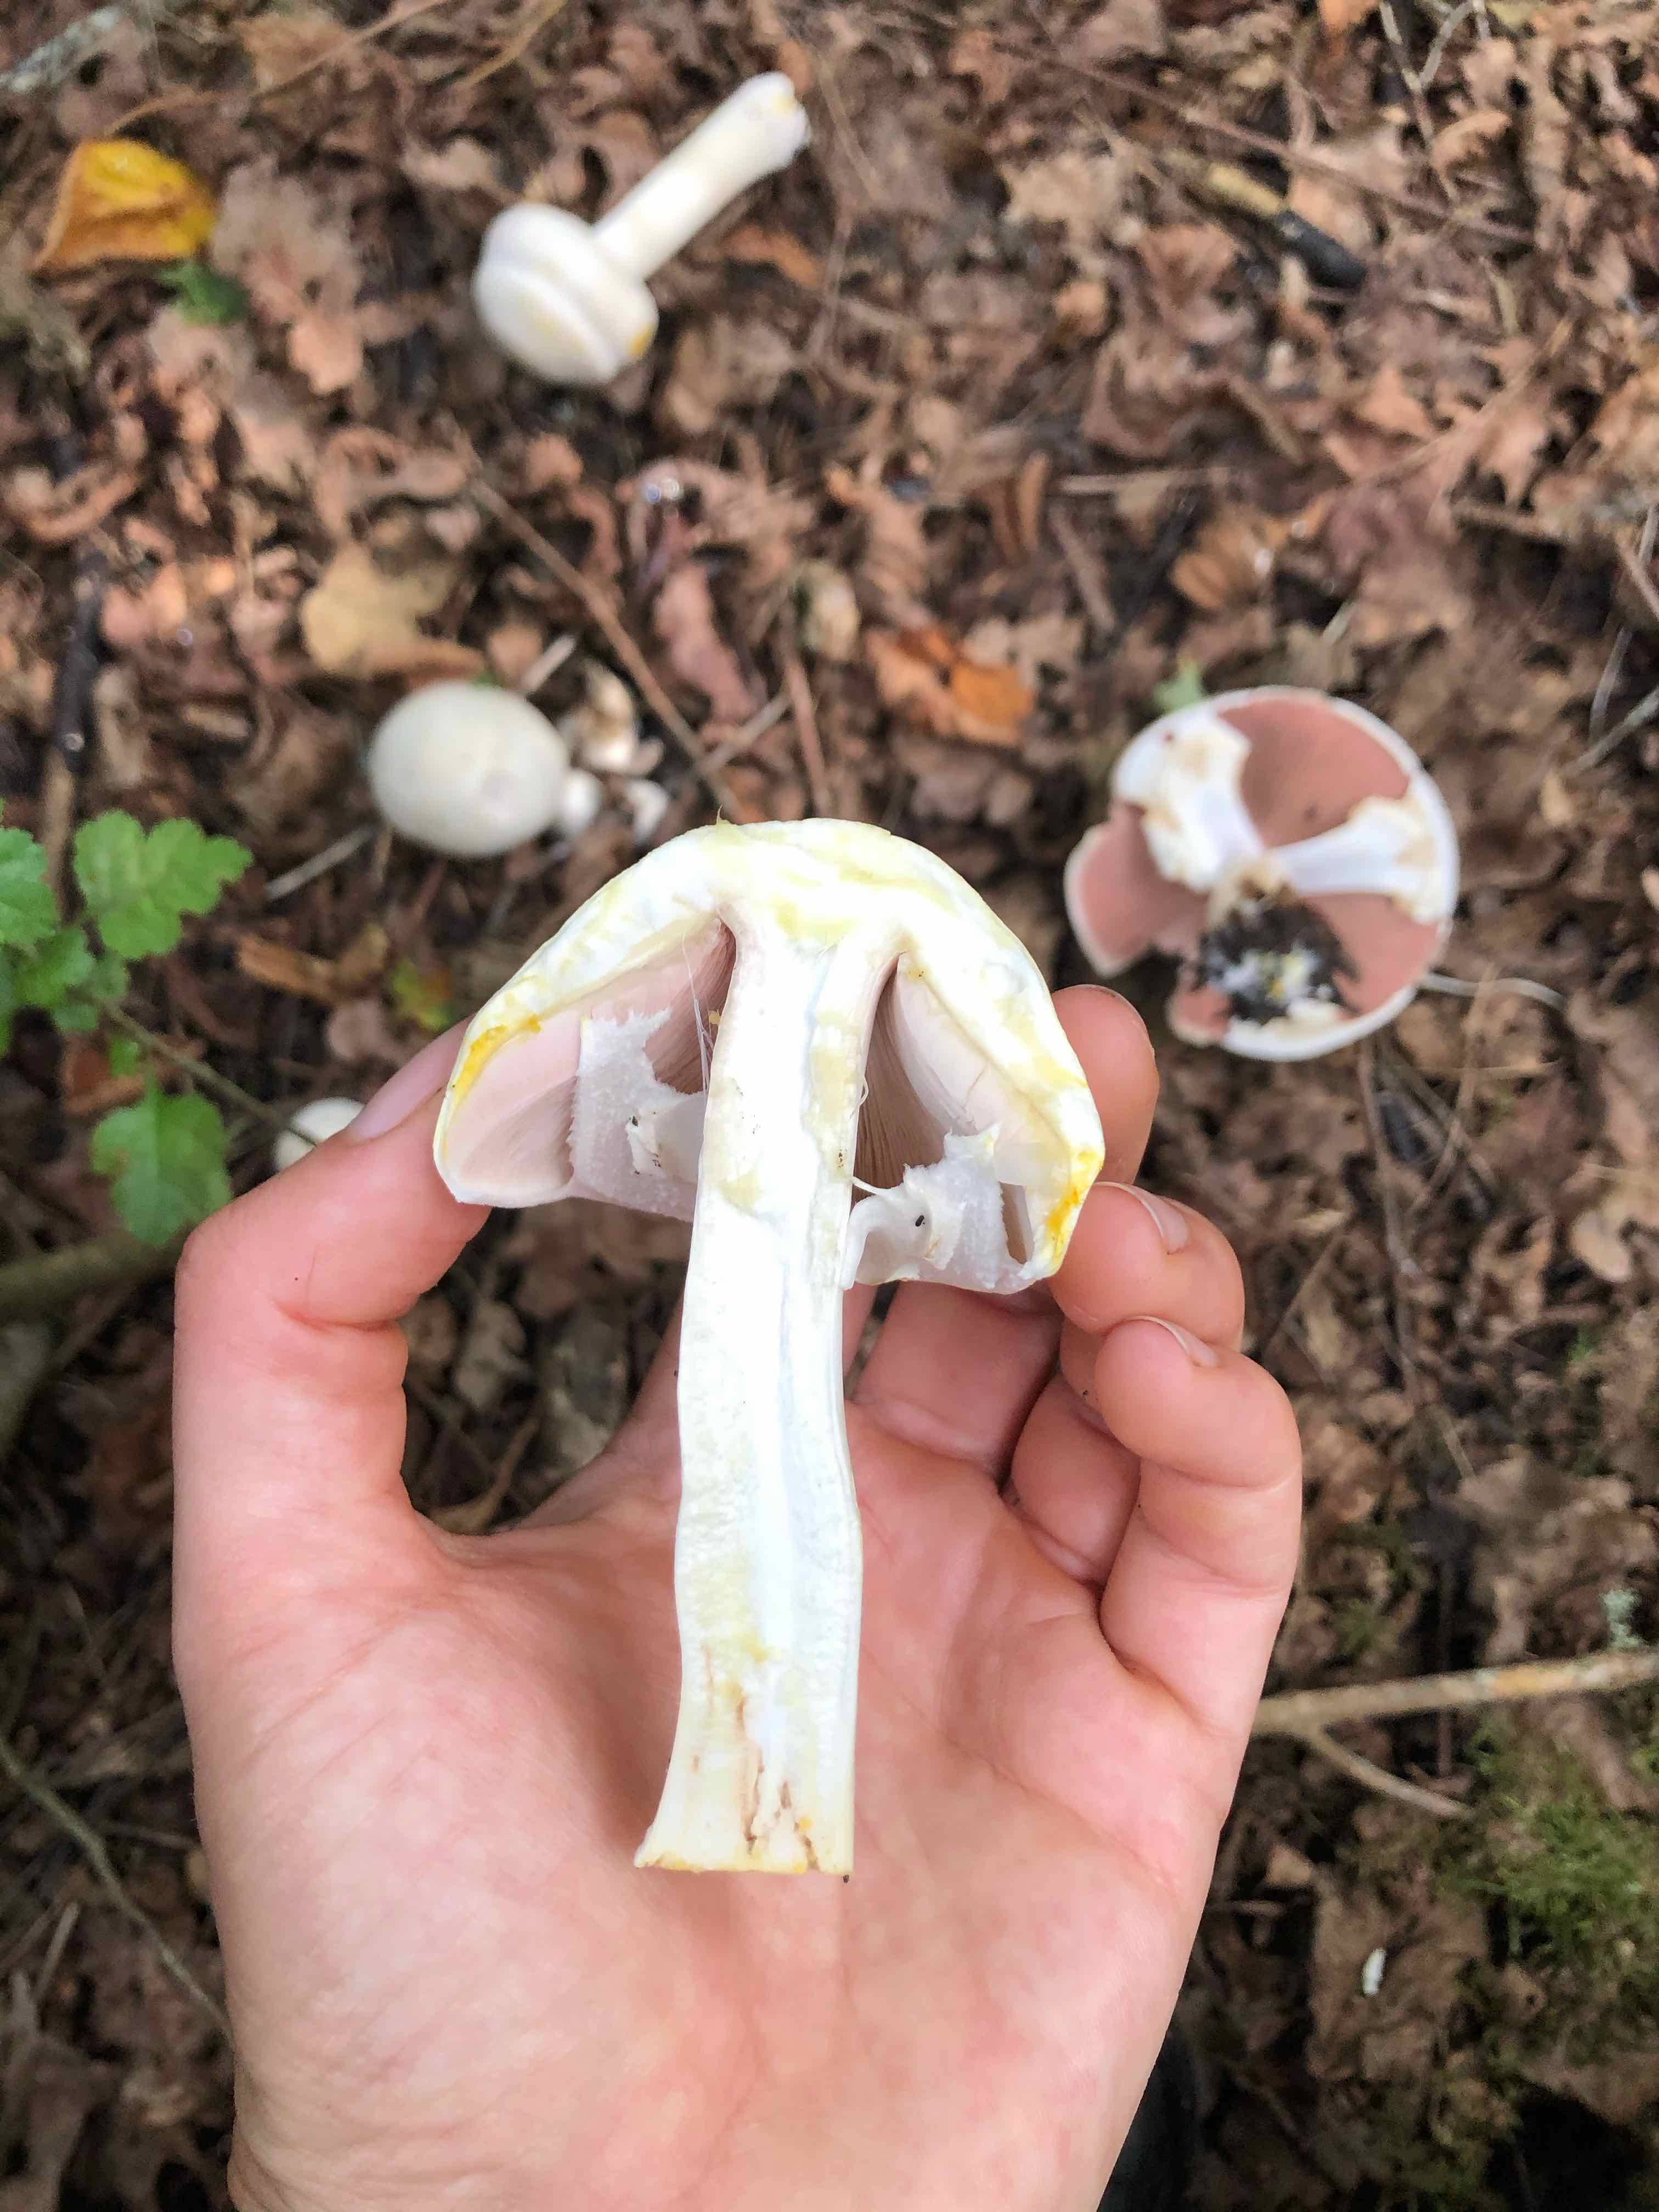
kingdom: Fungi
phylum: Basidiomycota
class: Agaricomycetes
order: Agaricales
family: Agaricaceae
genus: Agaricus
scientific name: Agaricus xanthodermus
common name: karbol-champignon
